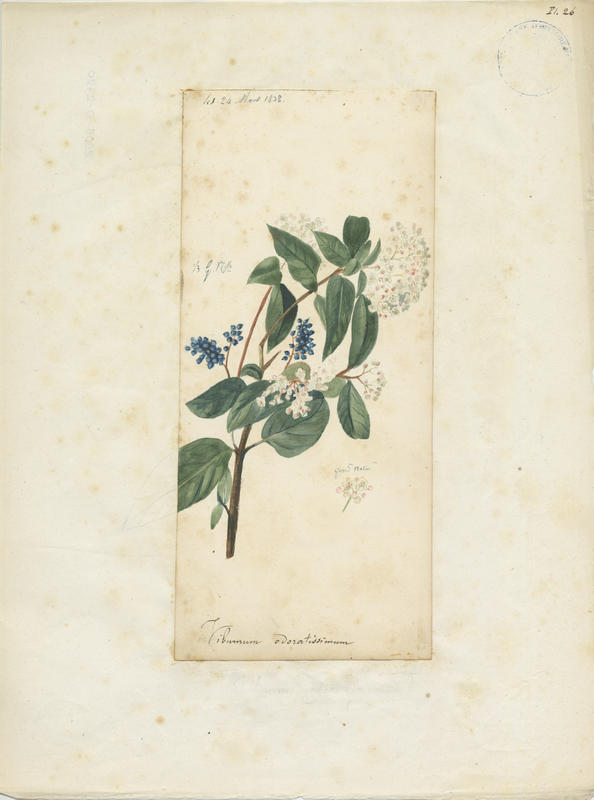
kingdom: Plantae
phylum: Tracheophyta
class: Magnoliopsida
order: Dipsacales
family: Viburnaceae
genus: Viburnum
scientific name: Viburnum odoratissimum
